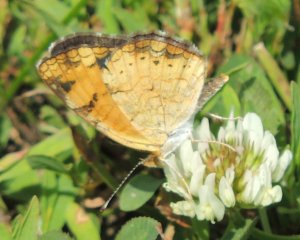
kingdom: Animalia
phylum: Arthropoda
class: Insecta
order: Lepidoptera
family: Nymphalidae
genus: Phyciodes
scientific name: Phyciodes tharos
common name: Pearl Crescent
